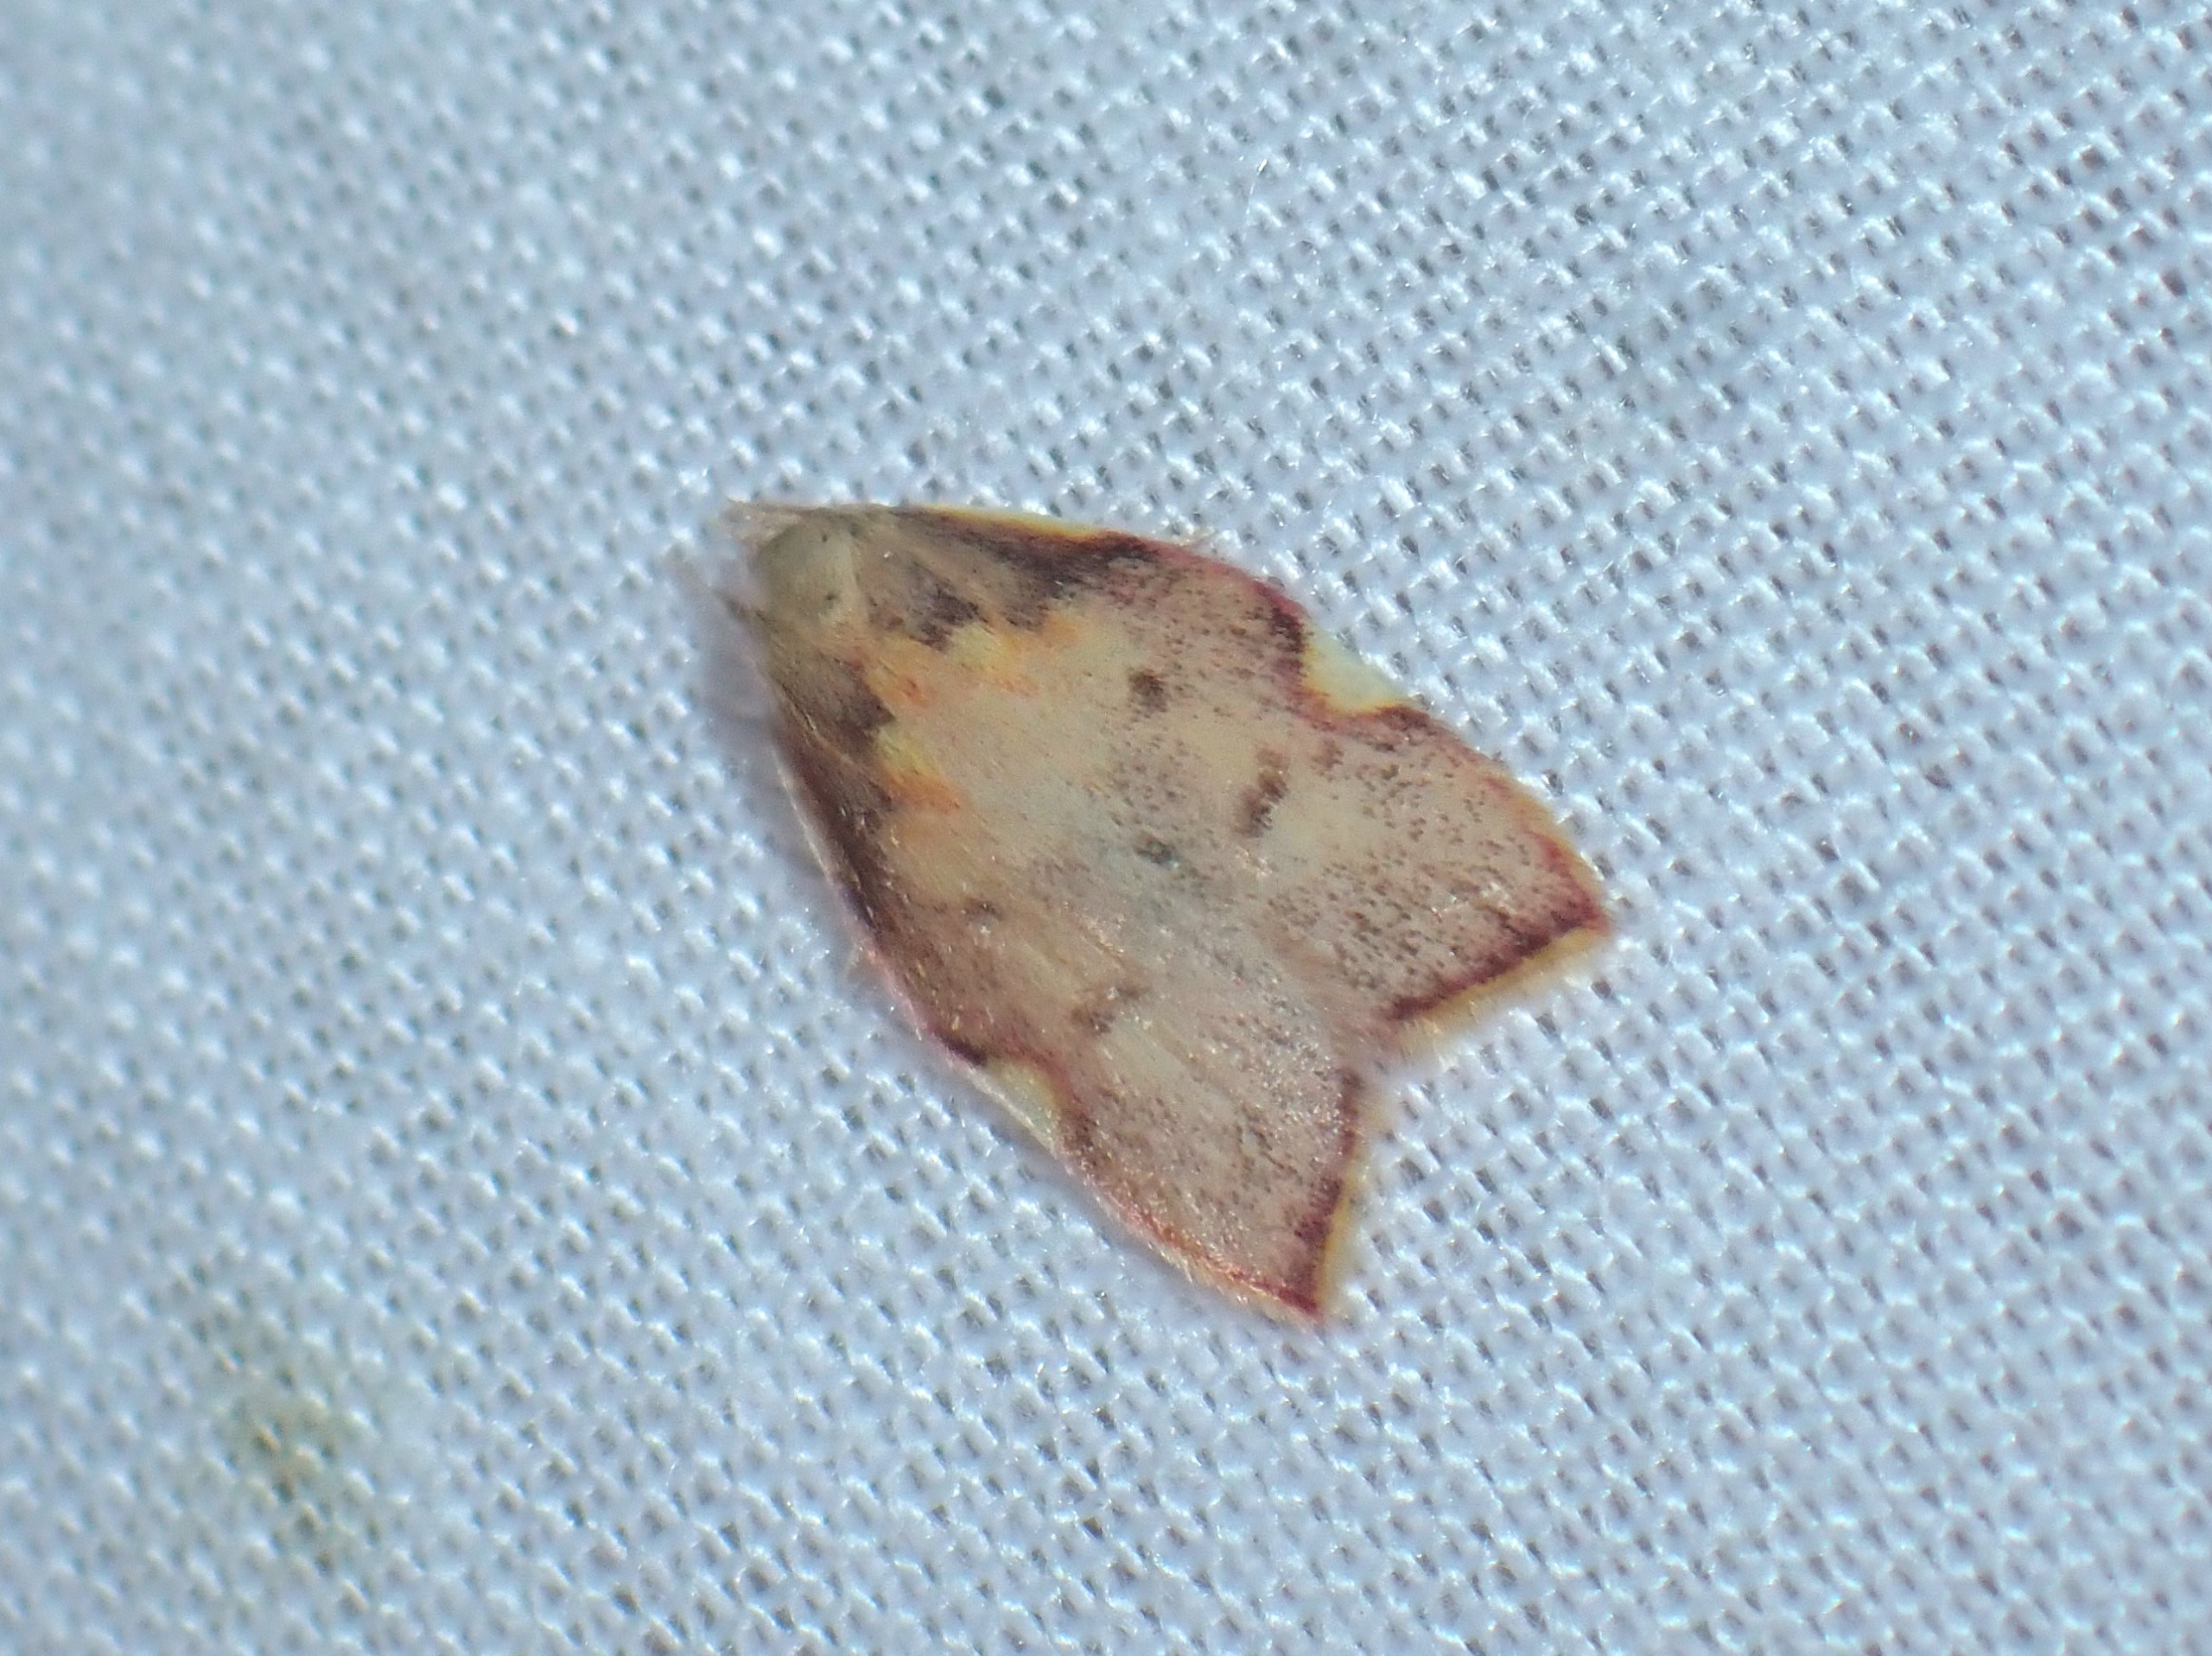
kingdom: Animalia
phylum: Arthropoda
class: Insecta
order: Lepidoptera
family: Peleopodidae
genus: Carcina
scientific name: Carcina quercana
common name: Egeprydvinge
